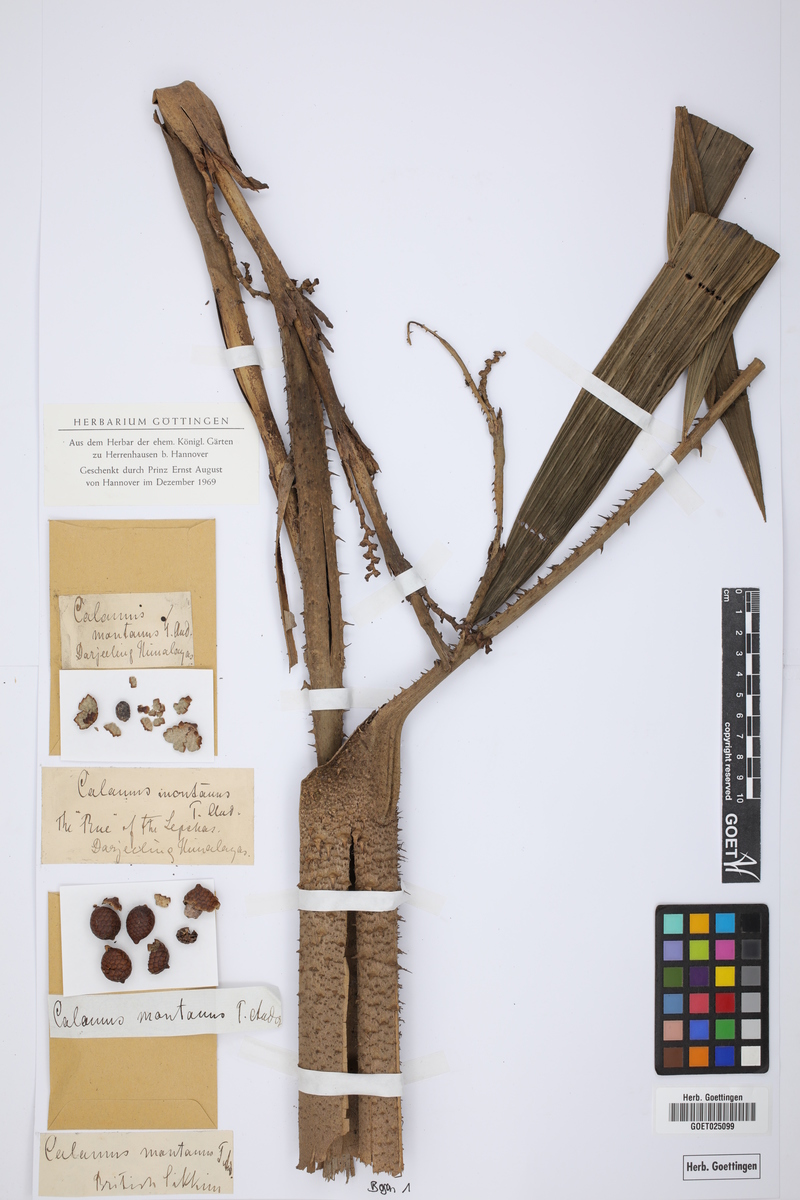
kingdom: Plantae
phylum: Tracheophyta
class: Liliopsida
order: Arecales
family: Arecaceae
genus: Calamus
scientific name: Calamus acanthospathus
